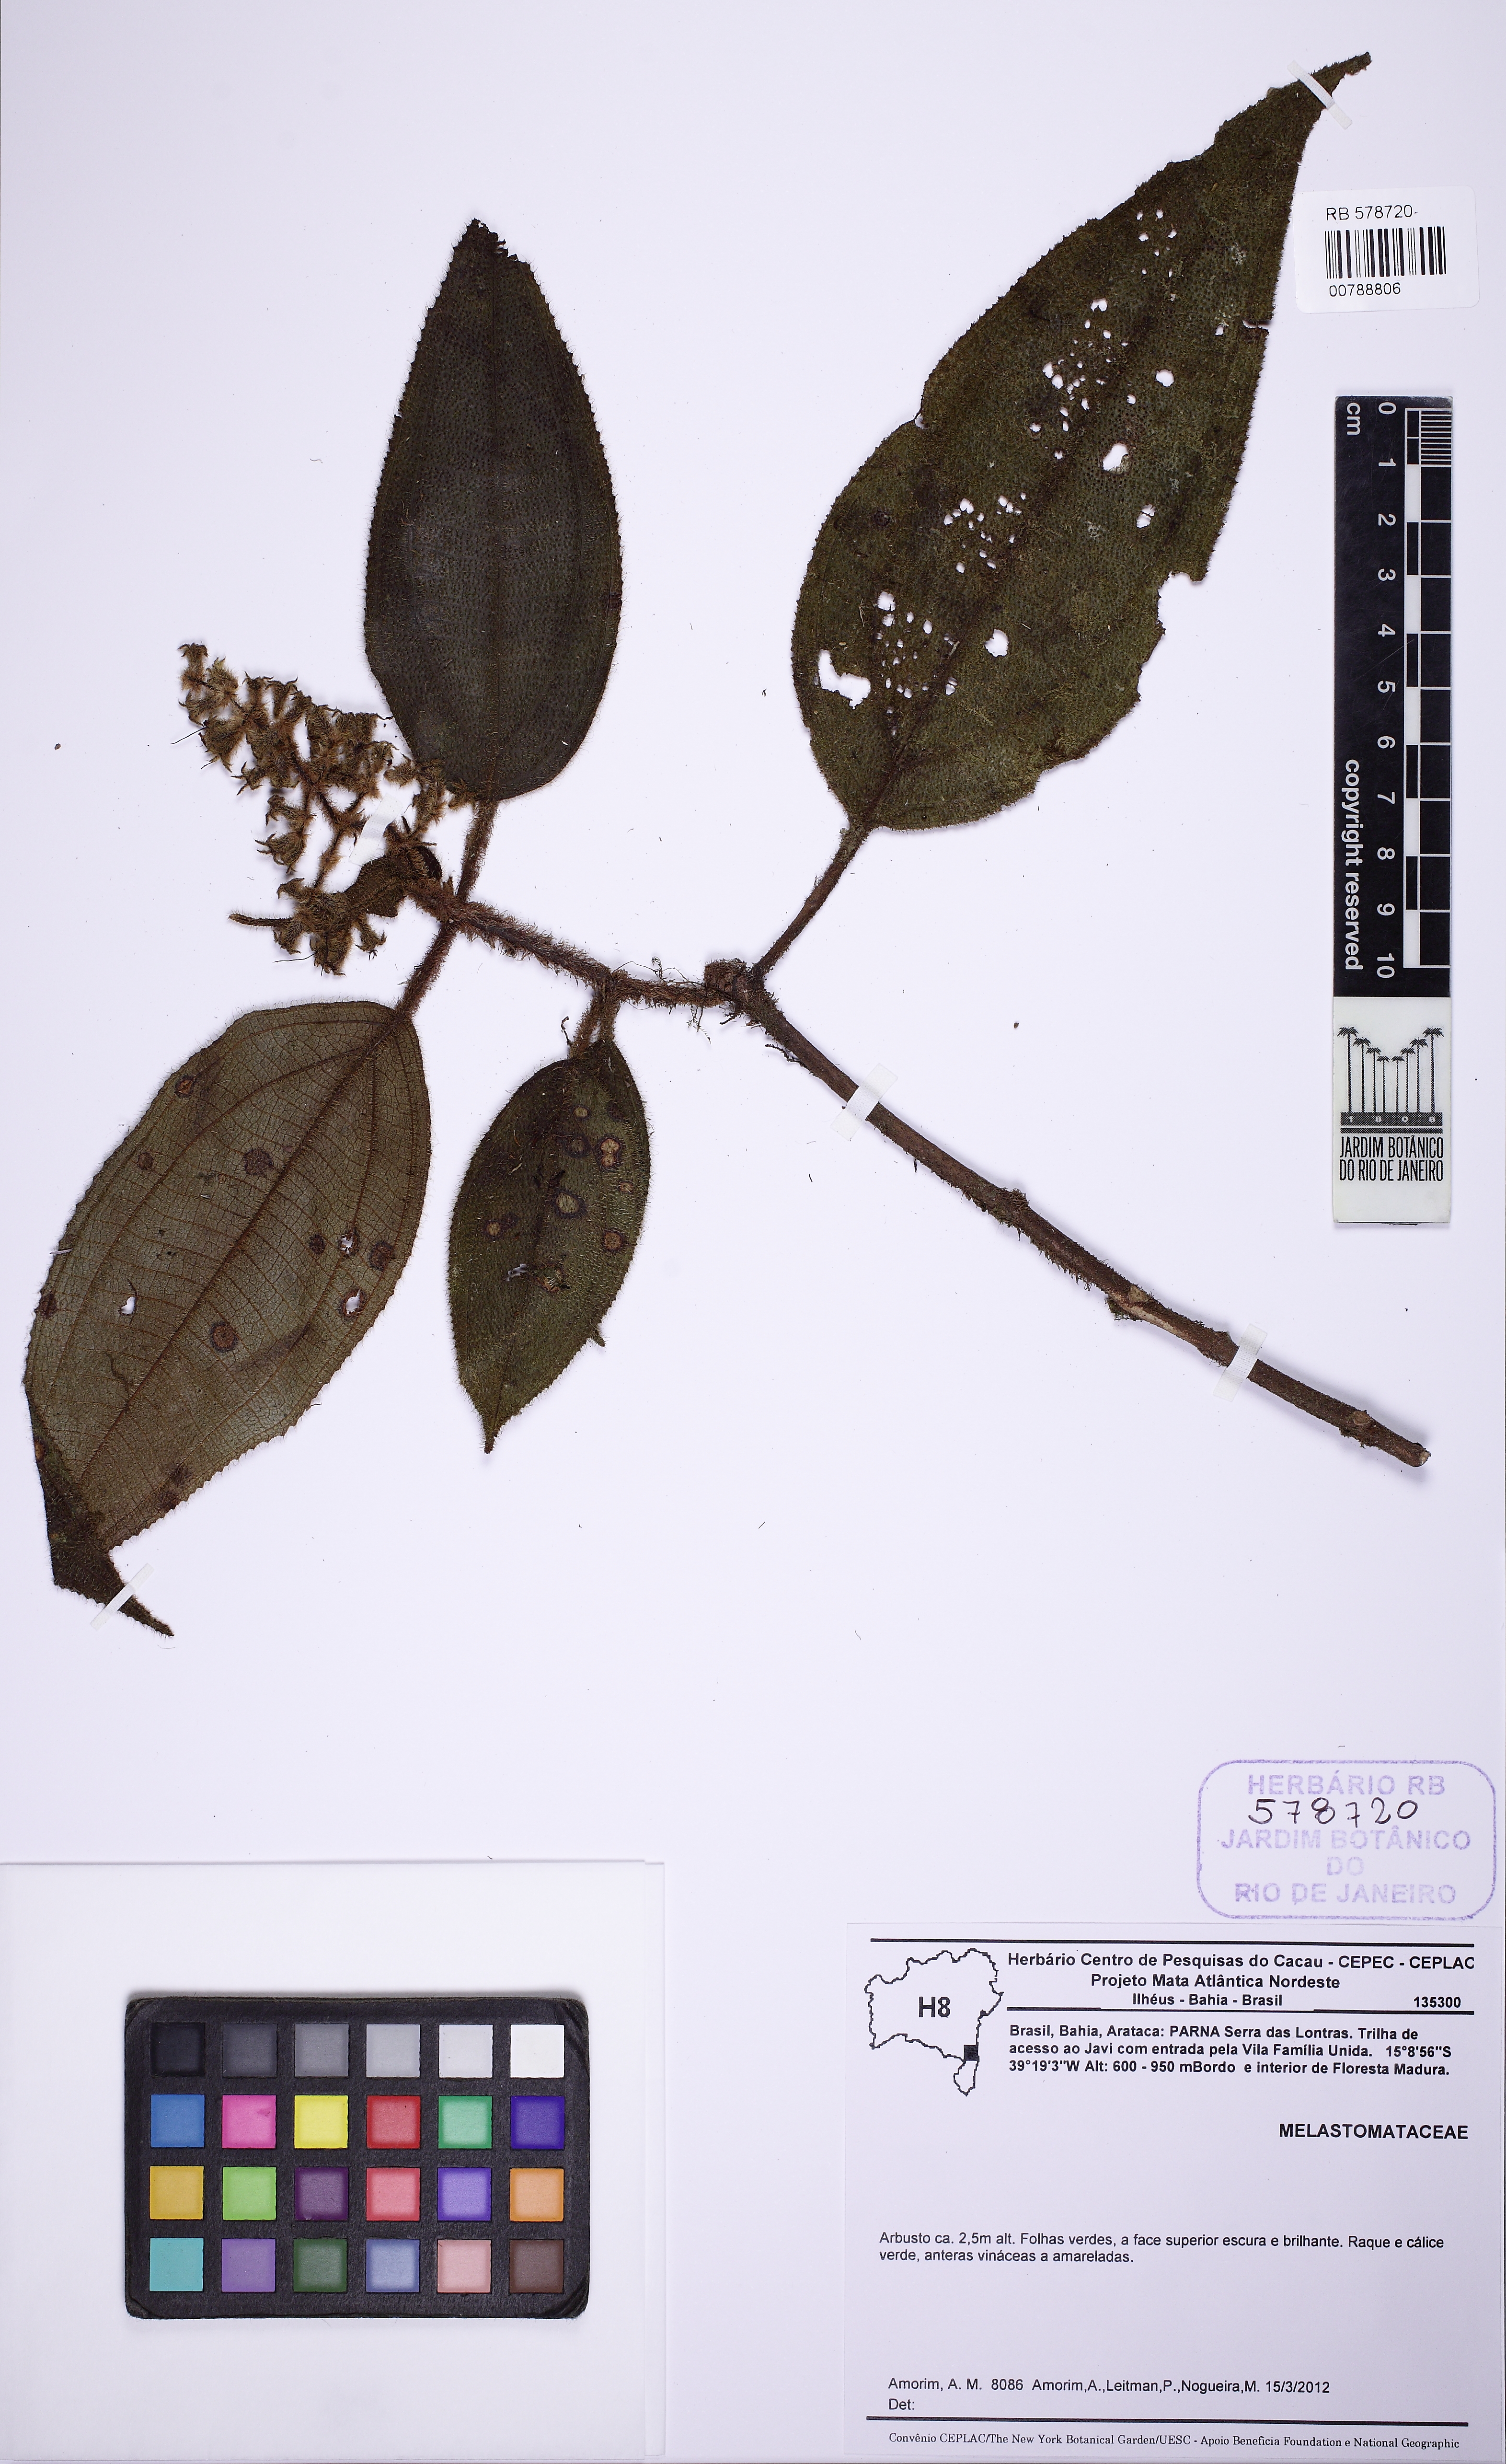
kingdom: Plantae
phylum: Tracheophyta
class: Magnoliopsida
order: Myrtales
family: Melastomataceae
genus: Miconia
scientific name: Miconia
